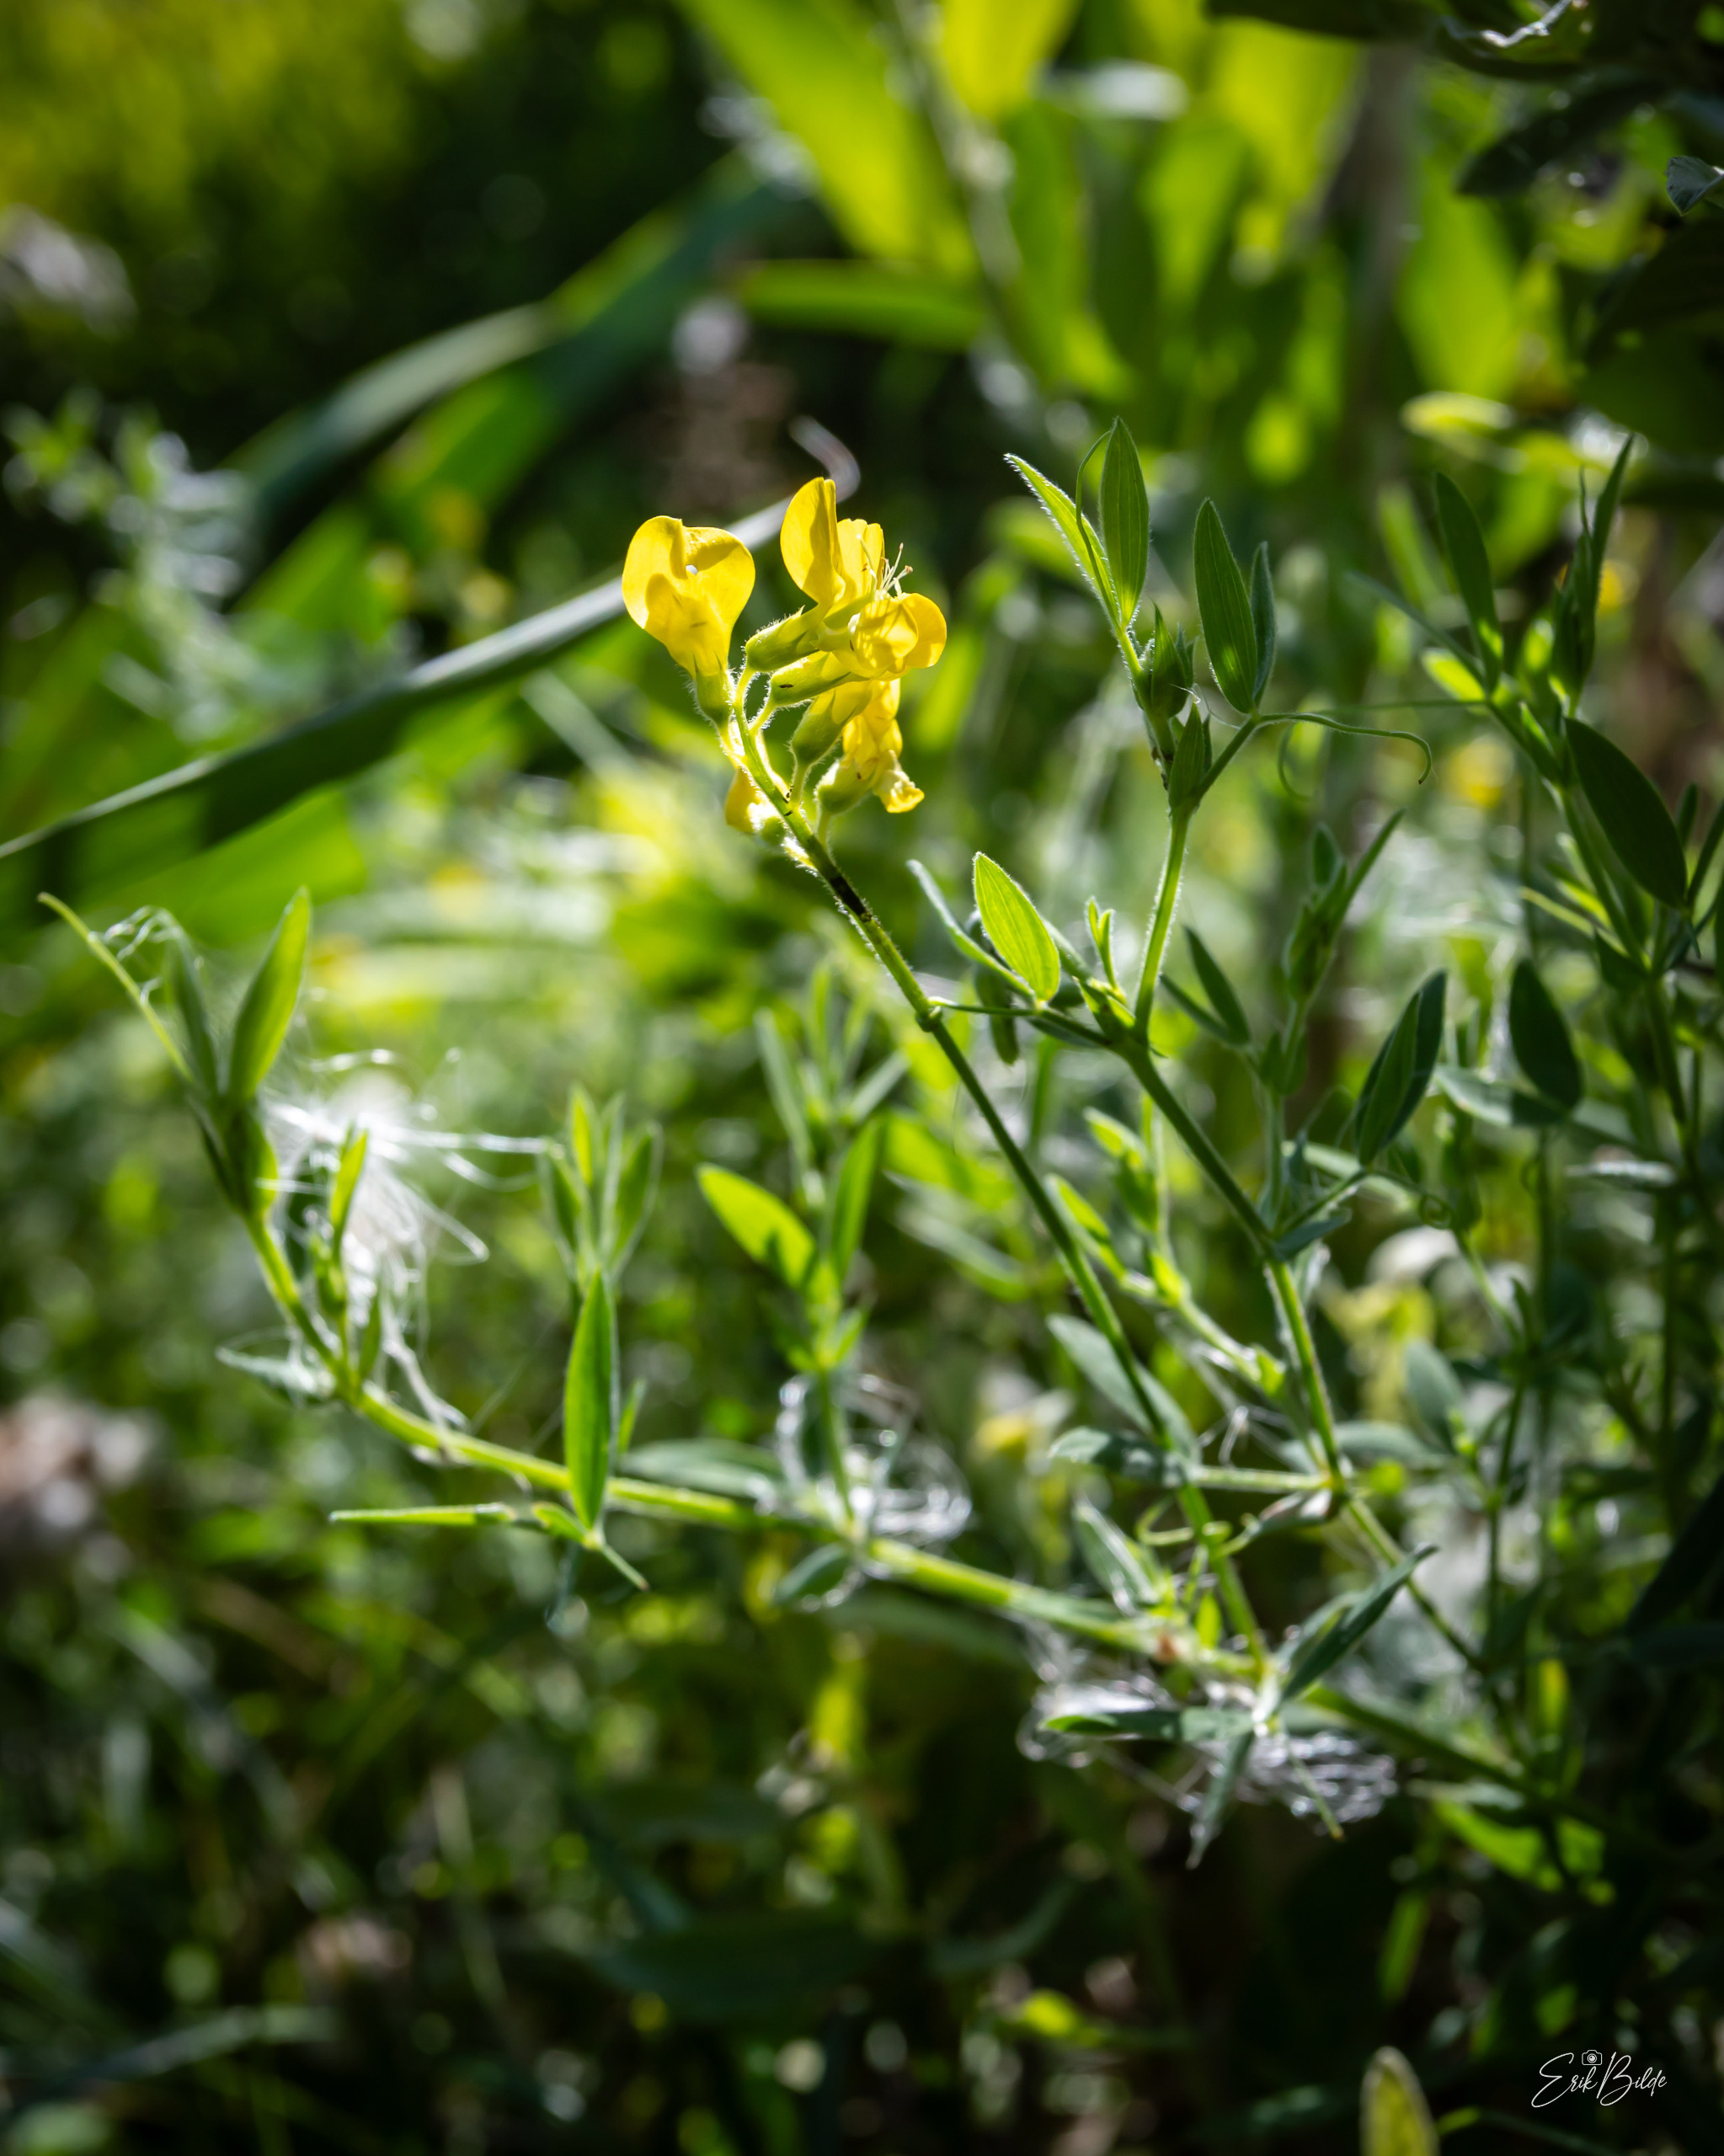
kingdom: Plantae
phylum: Tracheophyta
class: Magnoliopsida
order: Fabales
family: Fabaceae
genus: Lathyrus
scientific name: Lathyrus pratensis
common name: Gul fladbælg
